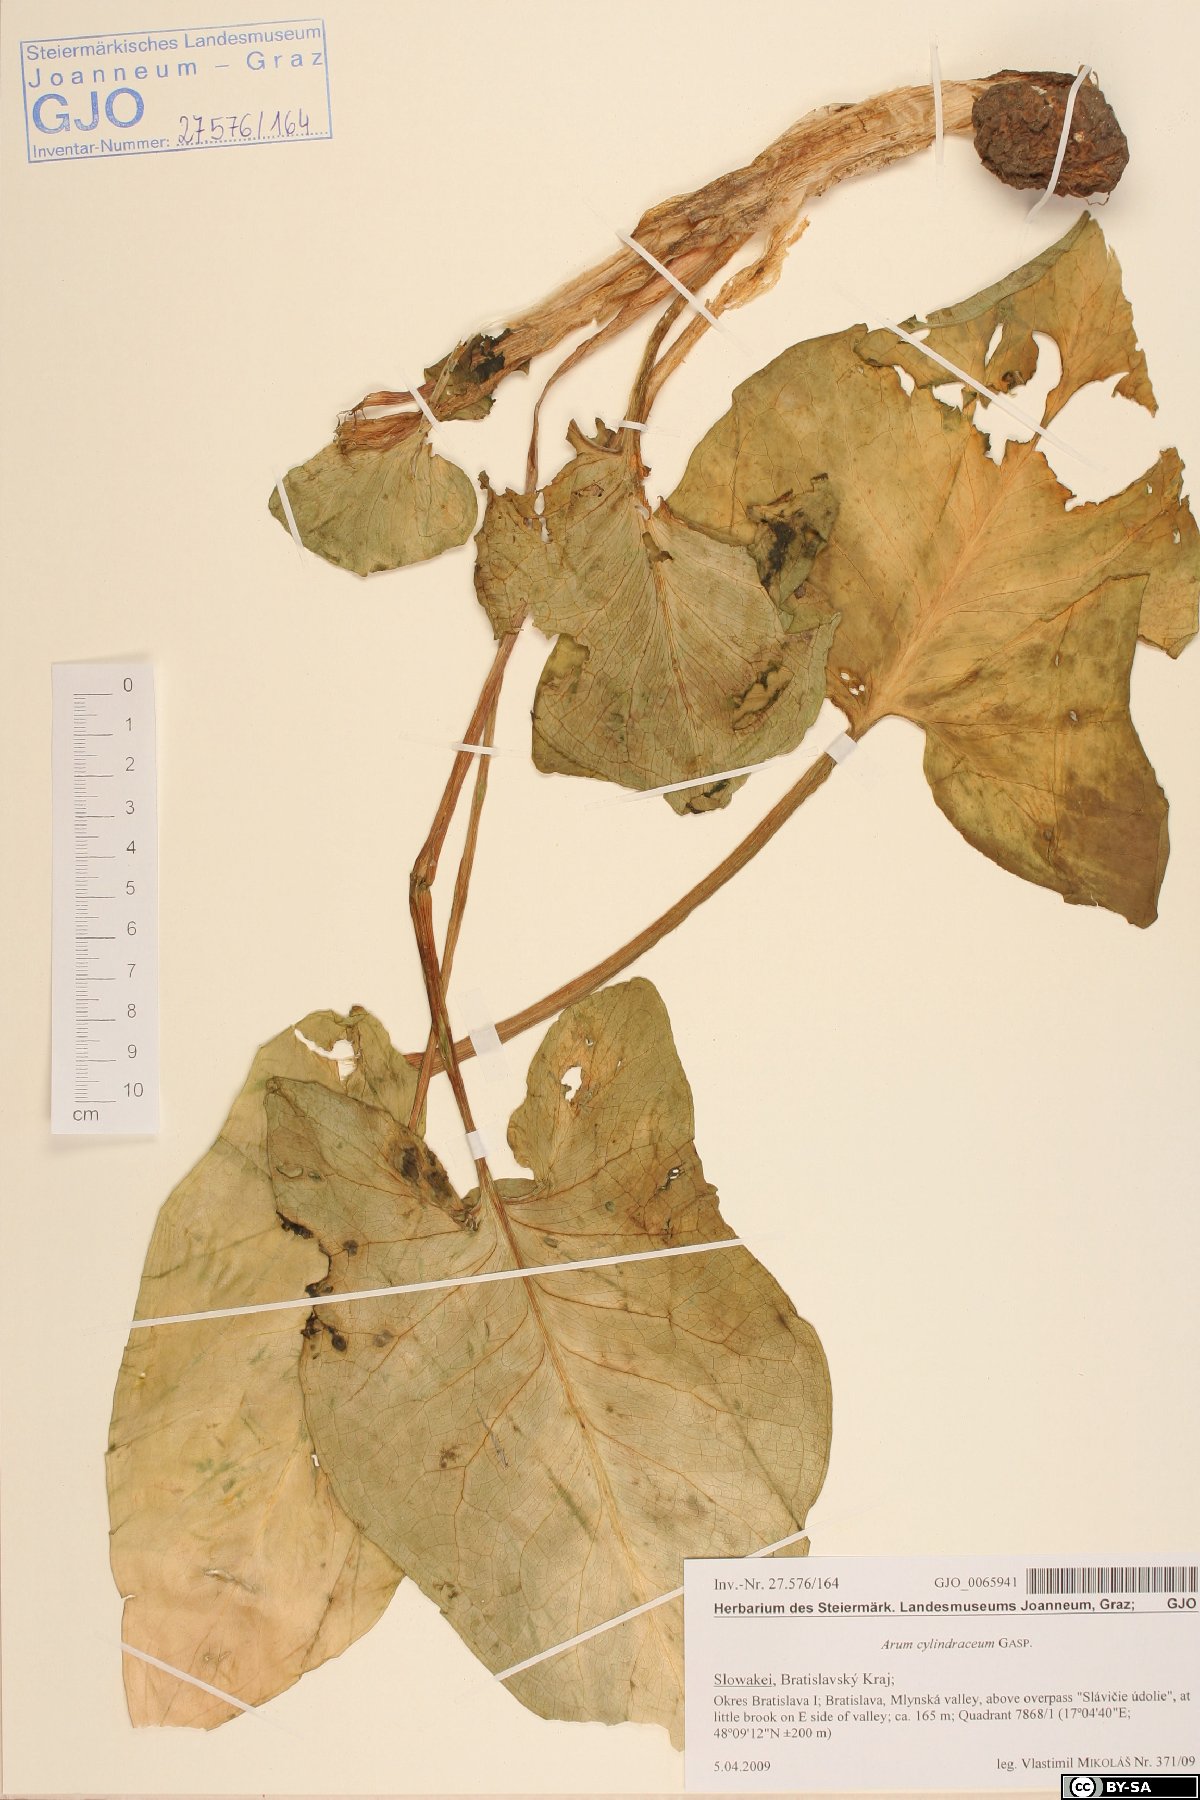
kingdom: Plantae
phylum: Tracheophyta
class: Liliopsida
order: Alismatales
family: Araceae
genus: Arum
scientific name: Arum cylindraceum
